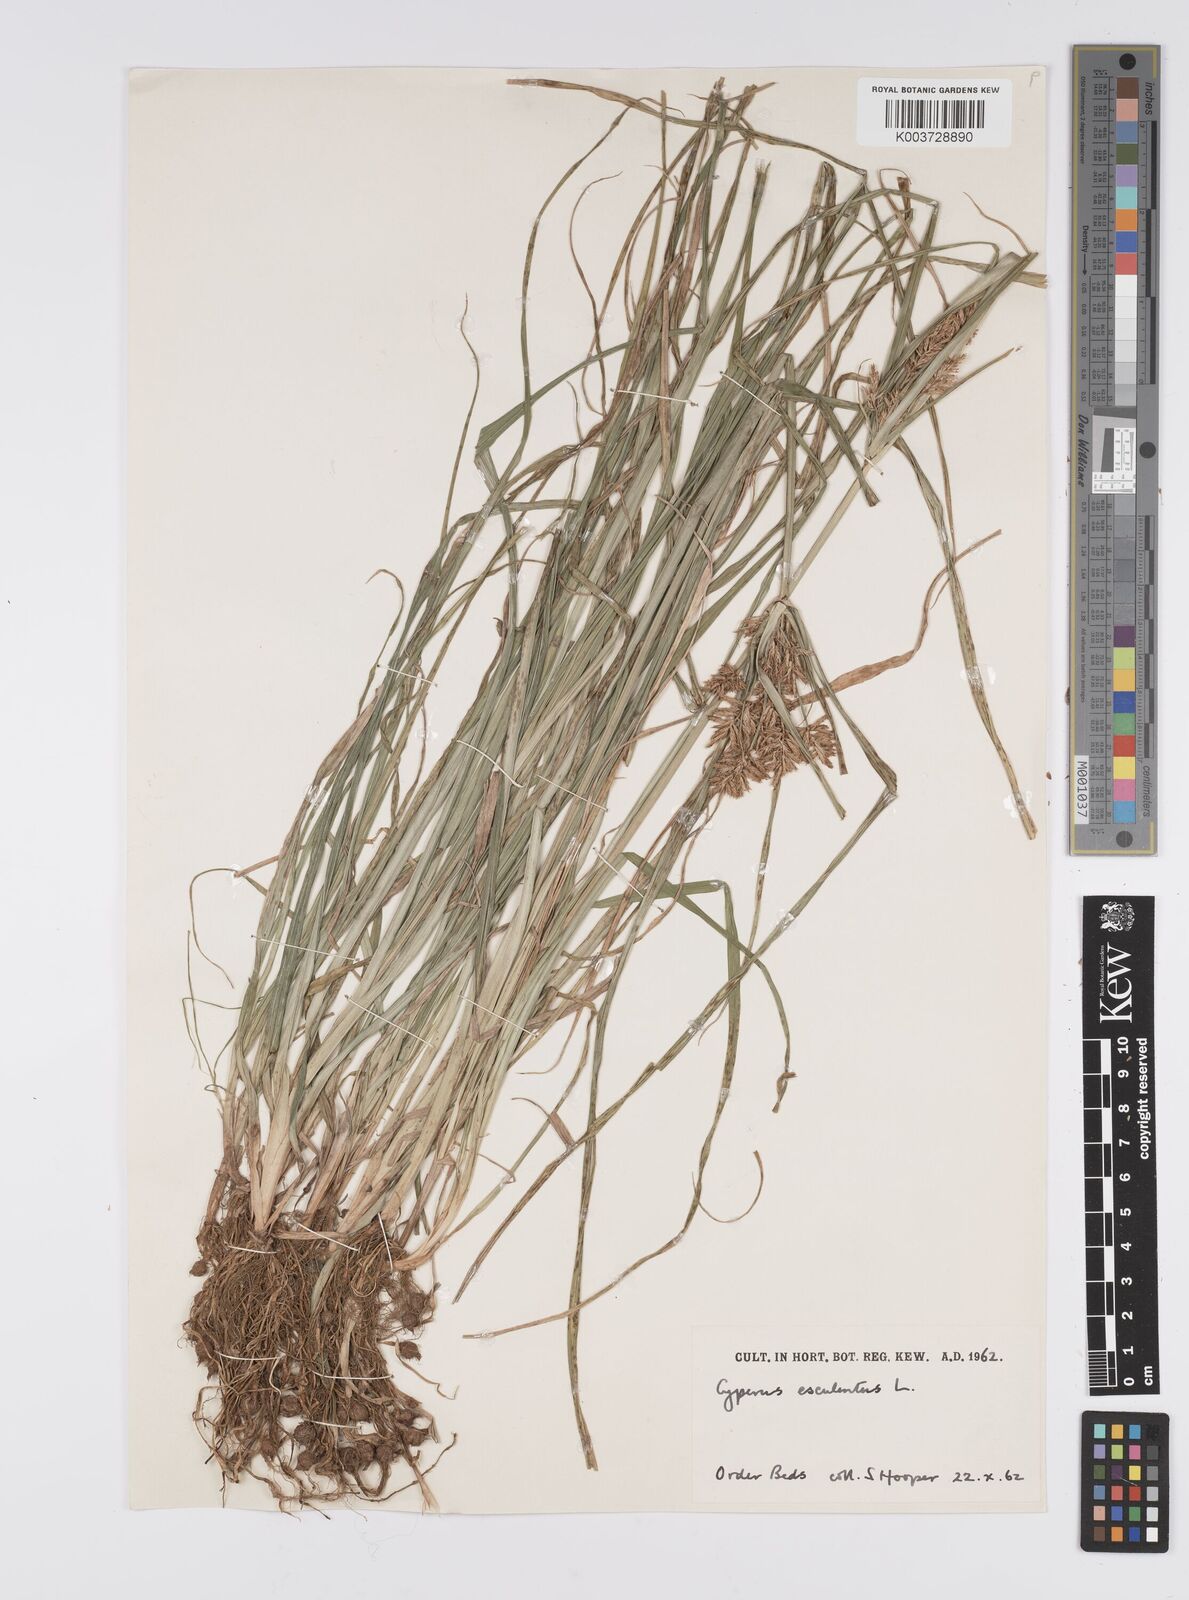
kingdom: Plantae
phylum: Tracheophyta
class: Liliopsida
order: Poales
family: Cyperaceae
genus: Cyperus
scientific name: Cyperus esculentus
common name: Yellow nutsedge
